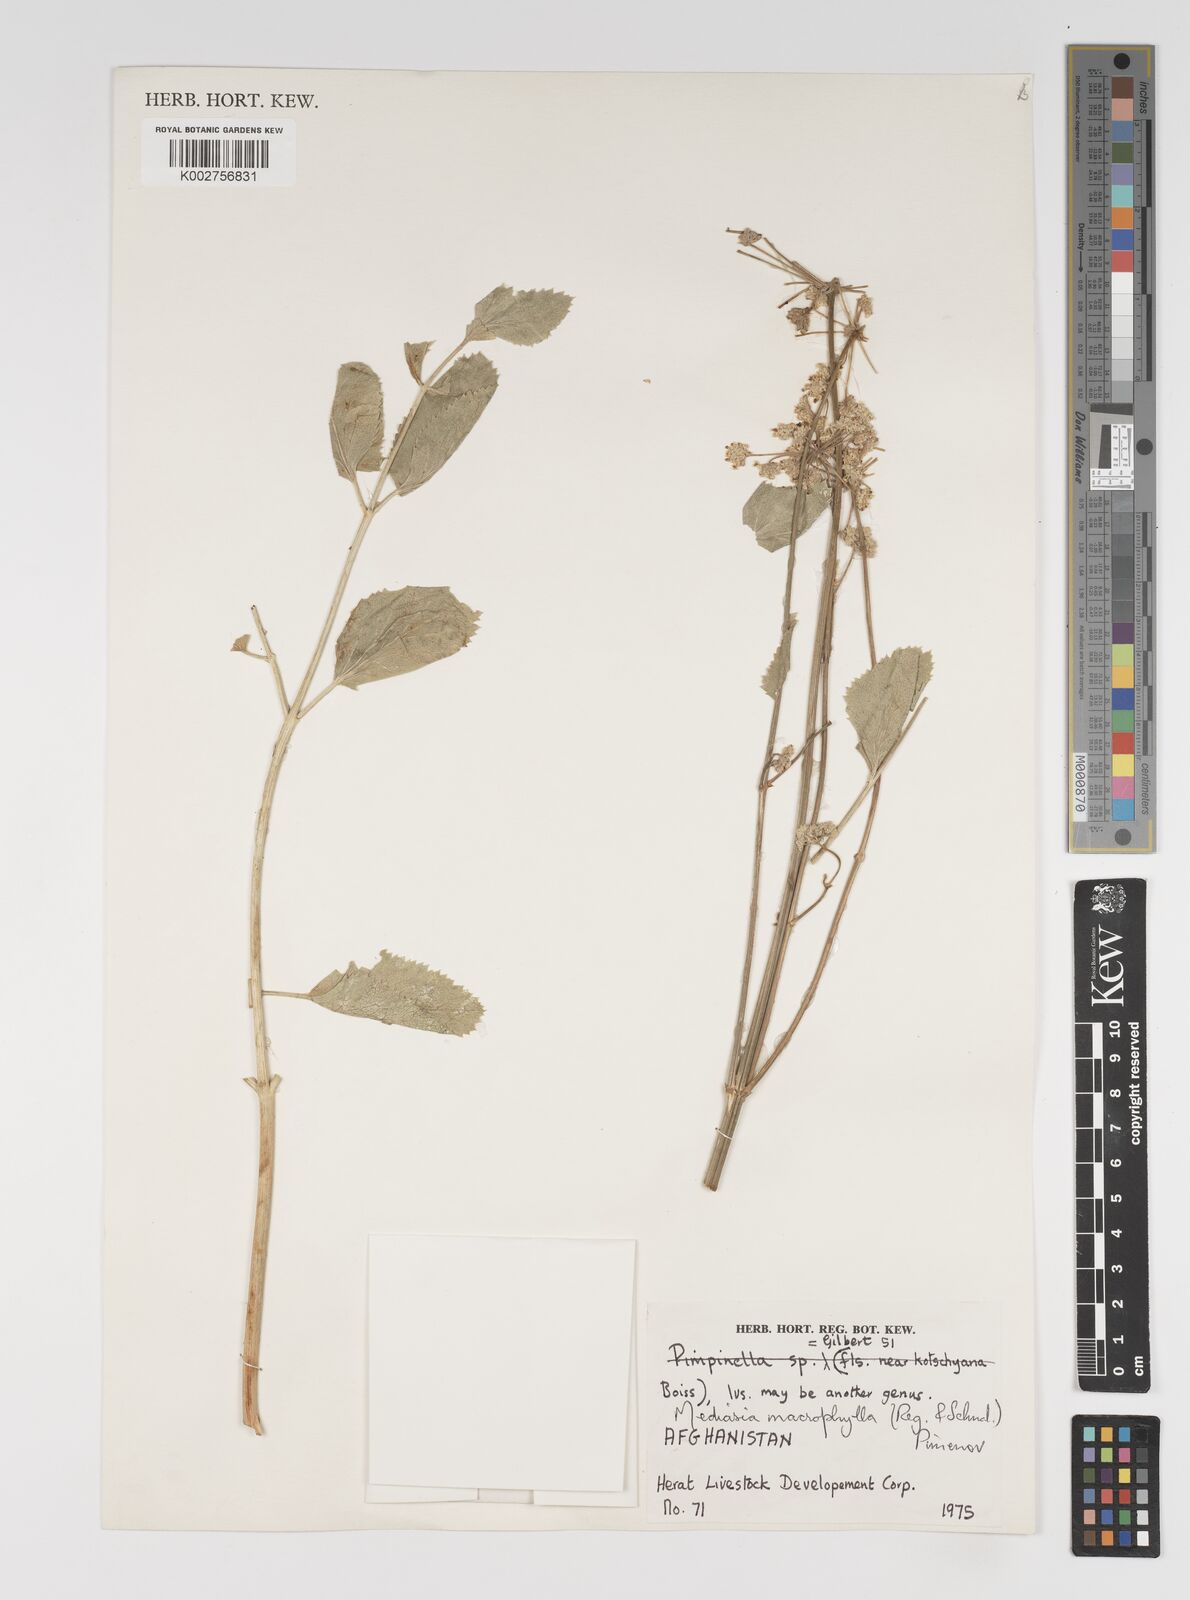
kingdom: Plantae
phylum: Tracheophyta
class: Magnoliopsida
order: Apiales
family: Apiaceae
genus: Mediasia
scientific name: Mediasia macrophylla
